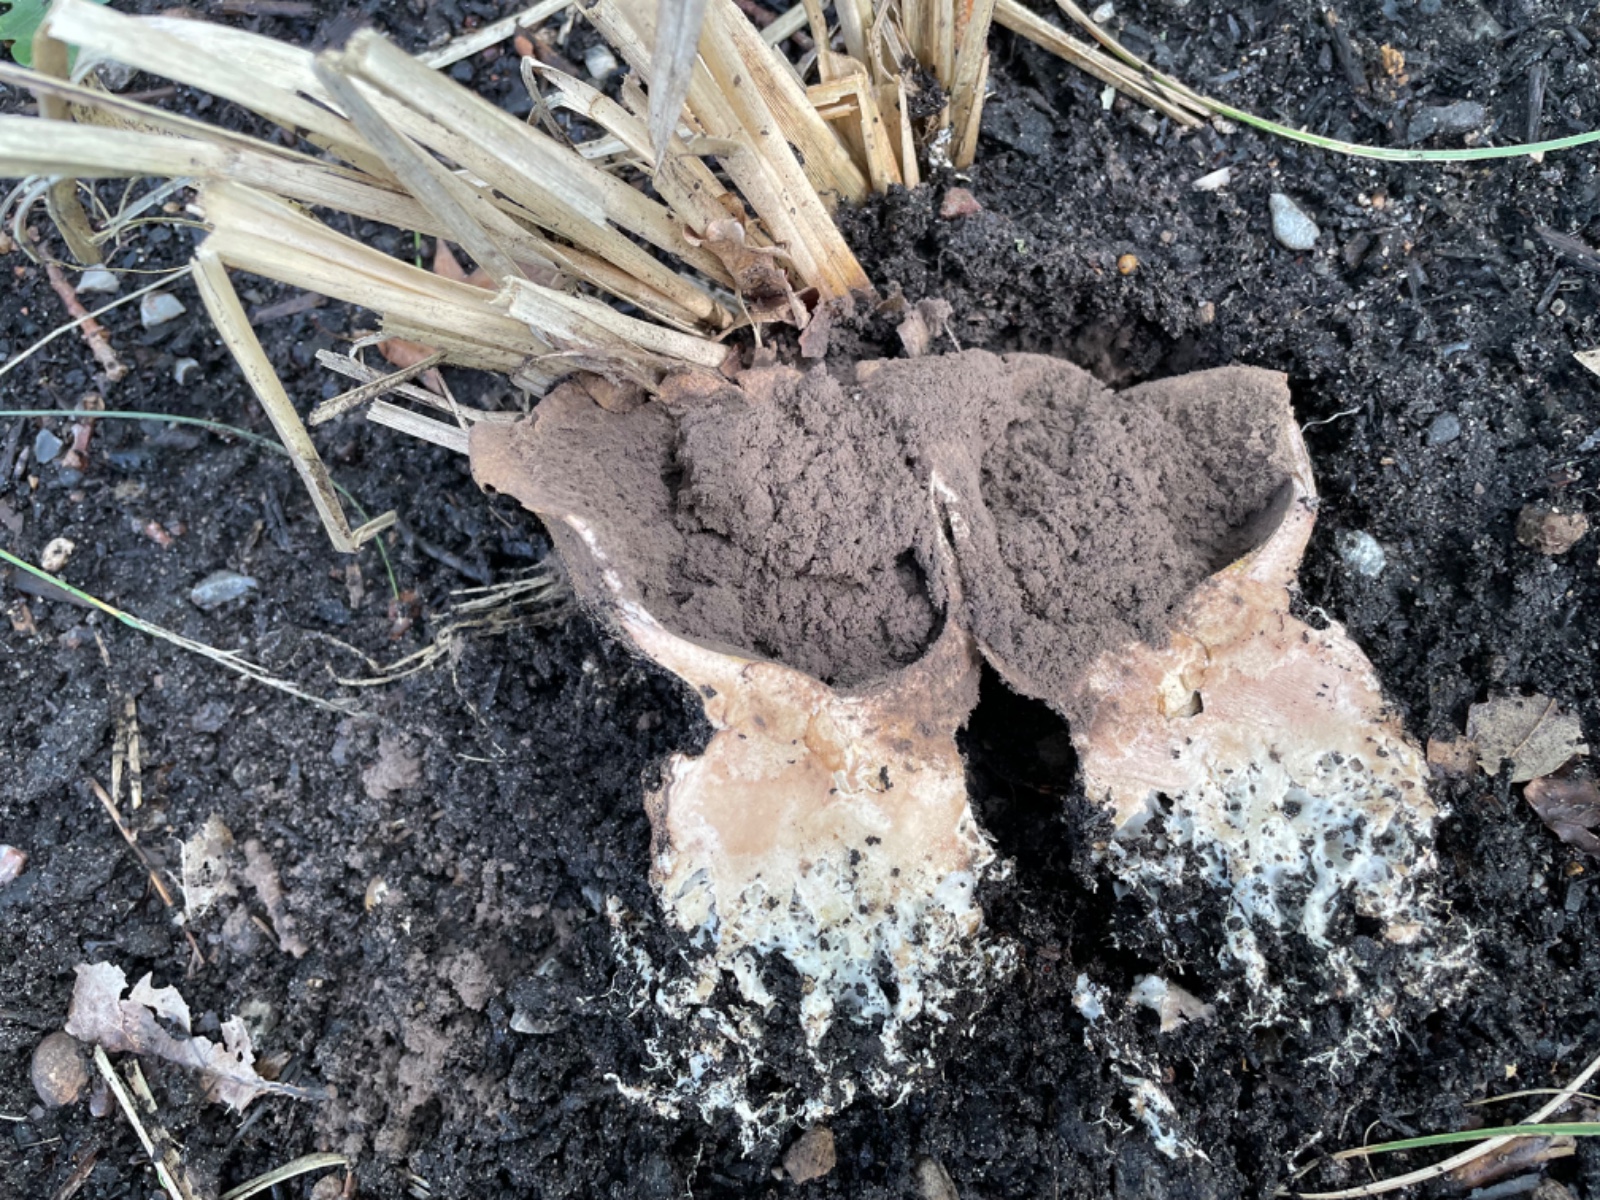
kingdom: Fungi
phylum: Basidiomycota
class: Agaricomycetes
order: Boletales
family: Sclerodermataceae
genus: Scleroderma
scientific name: Scleroderma verrucosum
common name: stilket bruskbold
